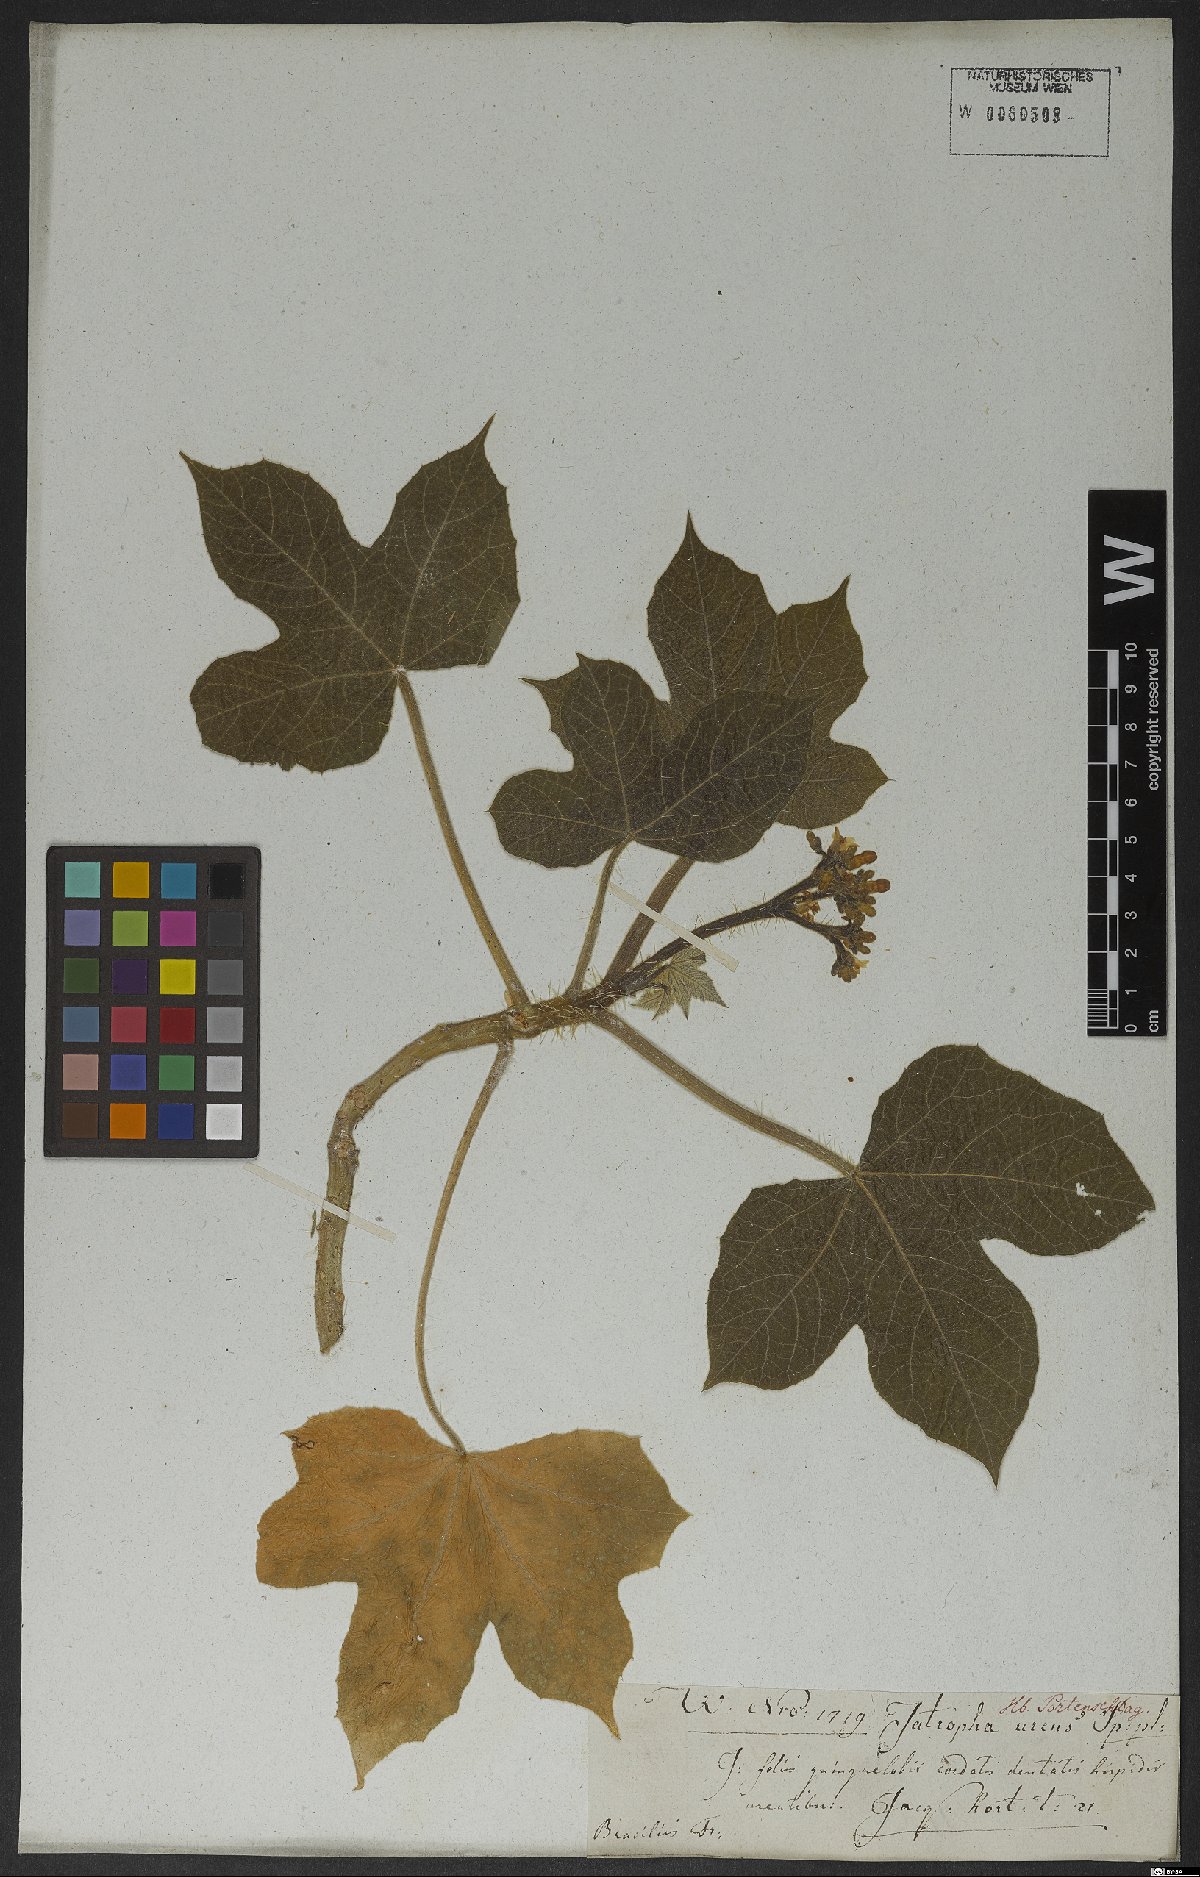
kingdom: Plantae
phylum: Tracheophyta
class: Magnoliopsida
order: Malpighiales
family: Euphorbiaceae
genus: Cnidoscolus
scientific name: Cnidoscolus urens
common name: Bull-nettle
